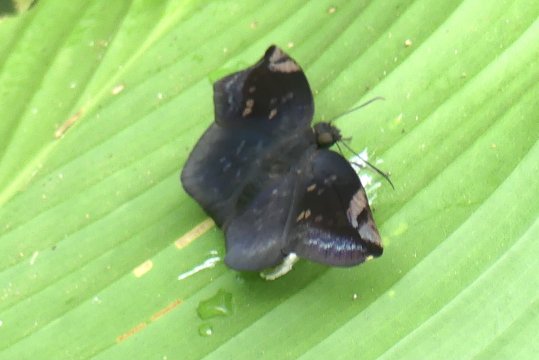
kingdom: Animalia
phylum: Arthropoda
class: Insecta
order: Lepidoptera
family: Hesperiidae
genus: Achlyodes
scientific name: Achlyodes thraso
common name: Southern Sicklewing
